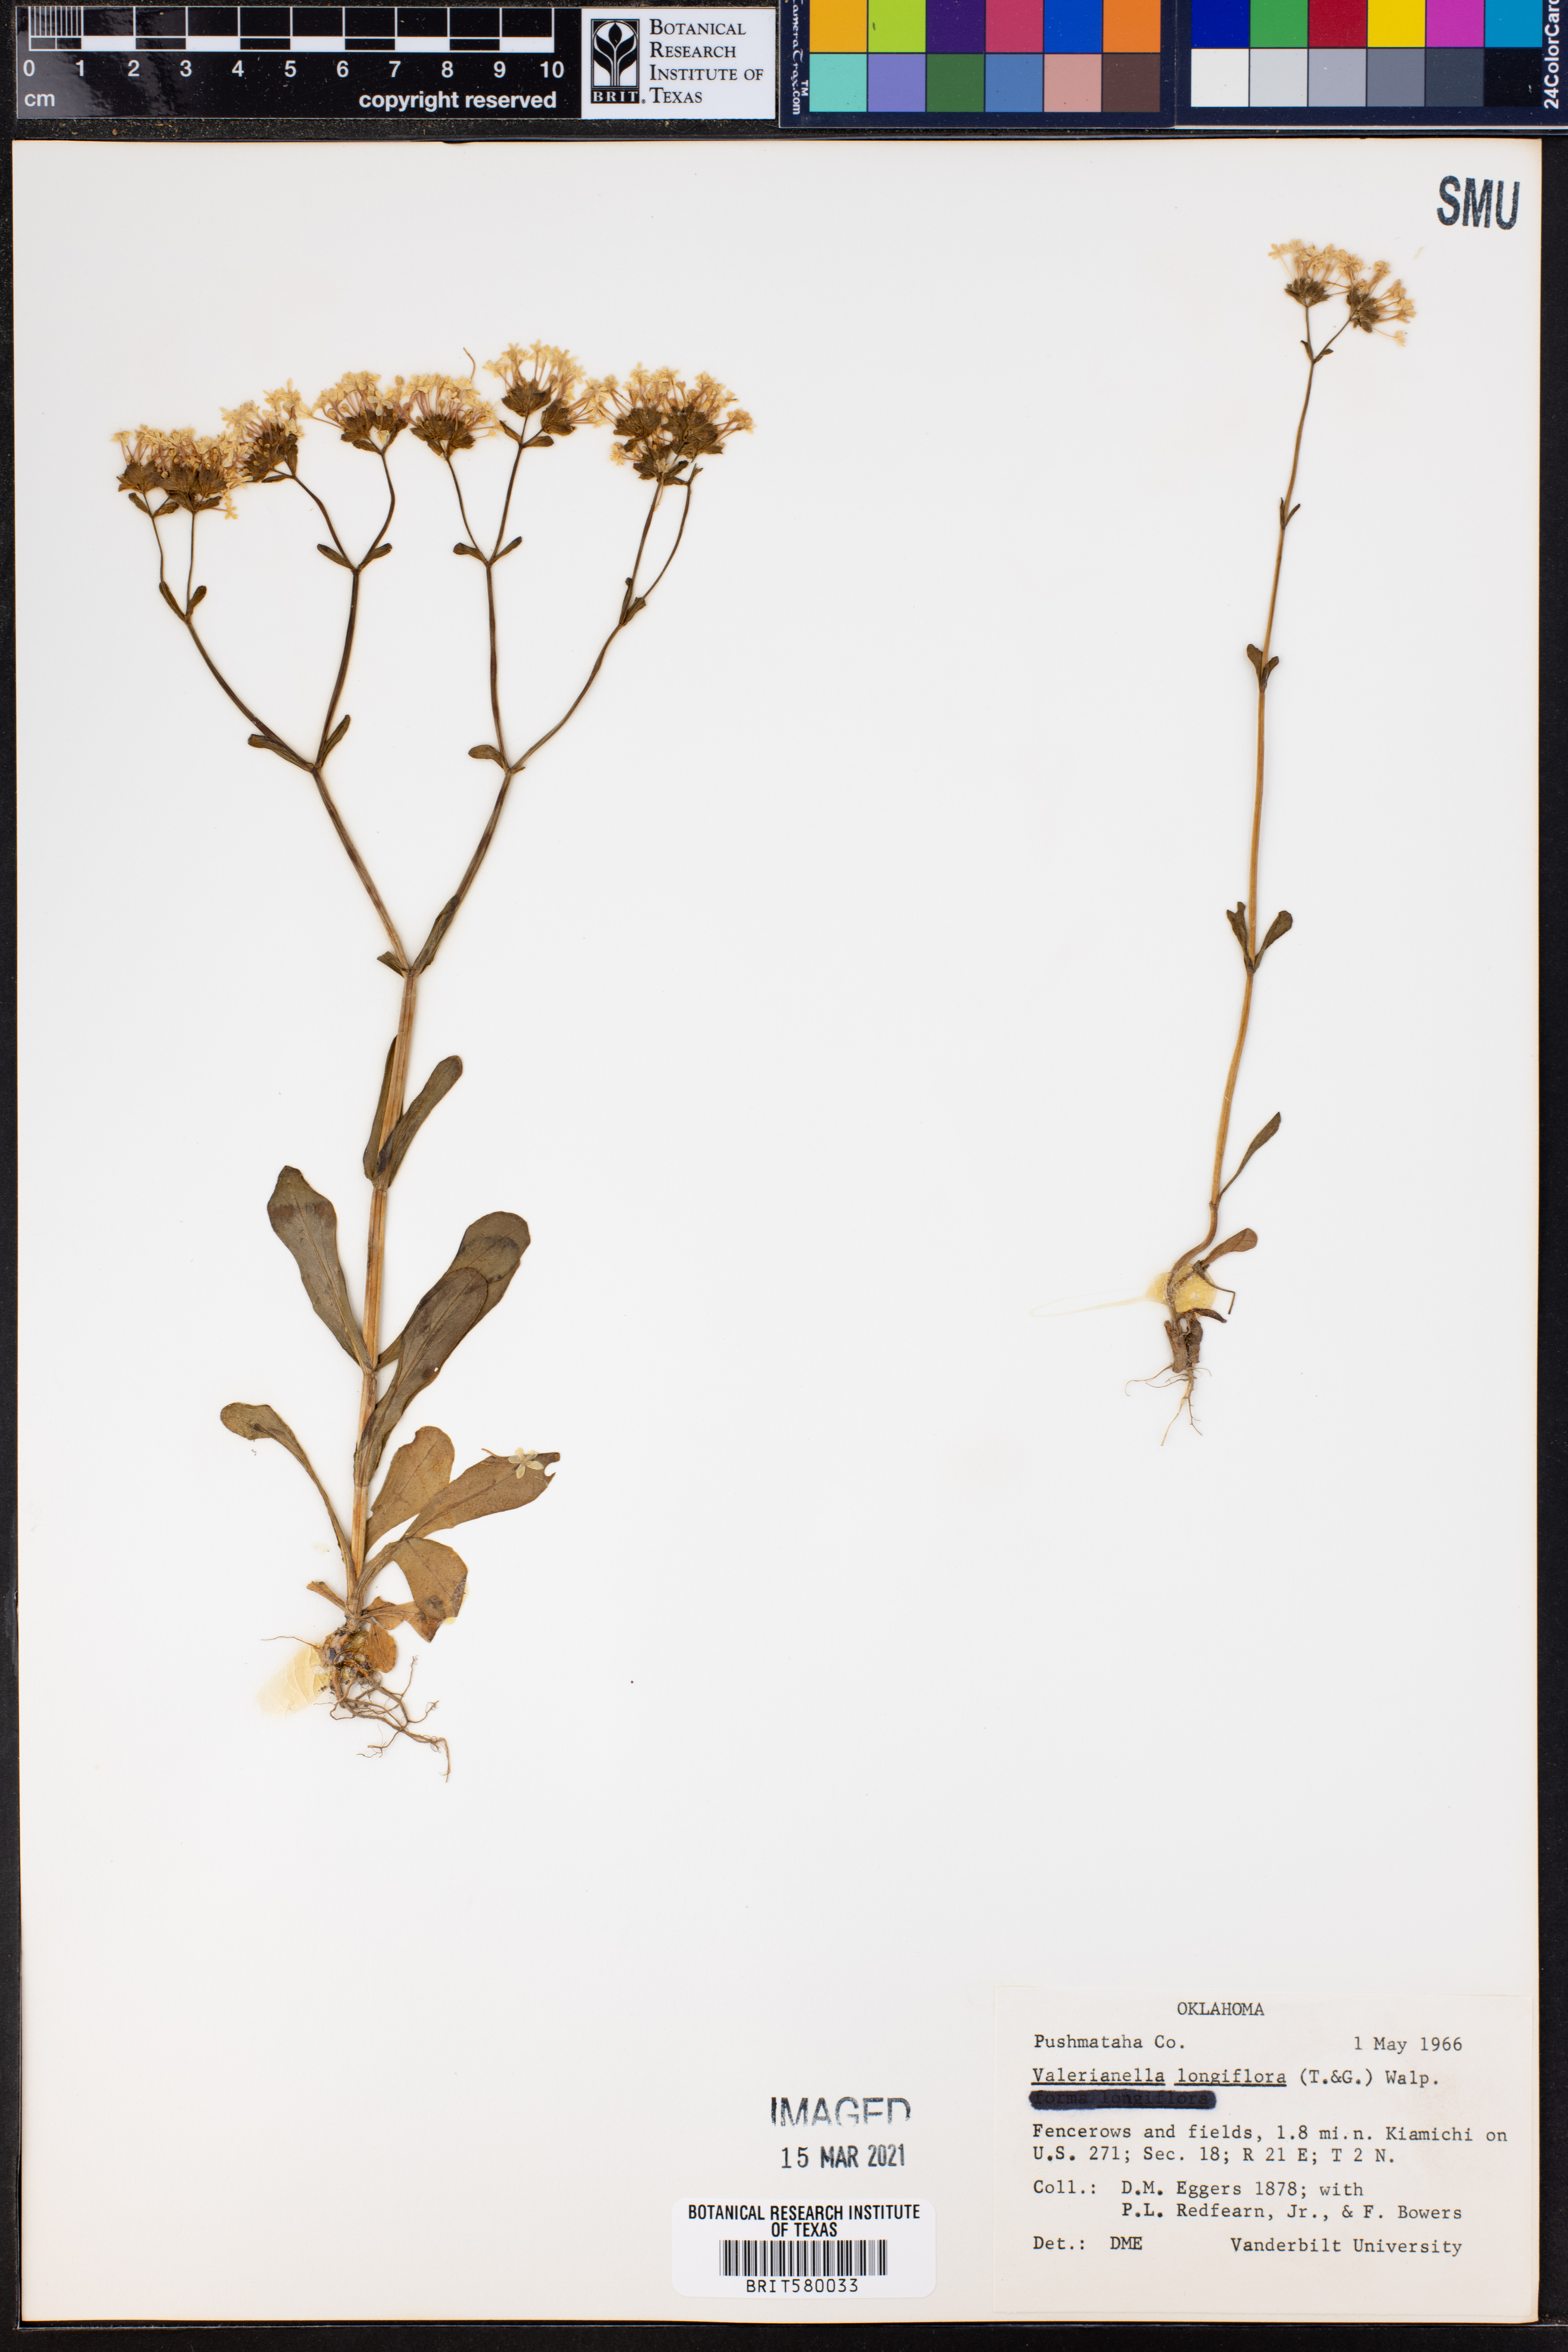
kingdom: Plantae
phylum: Tracheophyta
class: Magnoliopsida
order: Dipsacales
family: Caprifoliaceae
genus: Plectritis
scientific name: Plectritis longiflora
